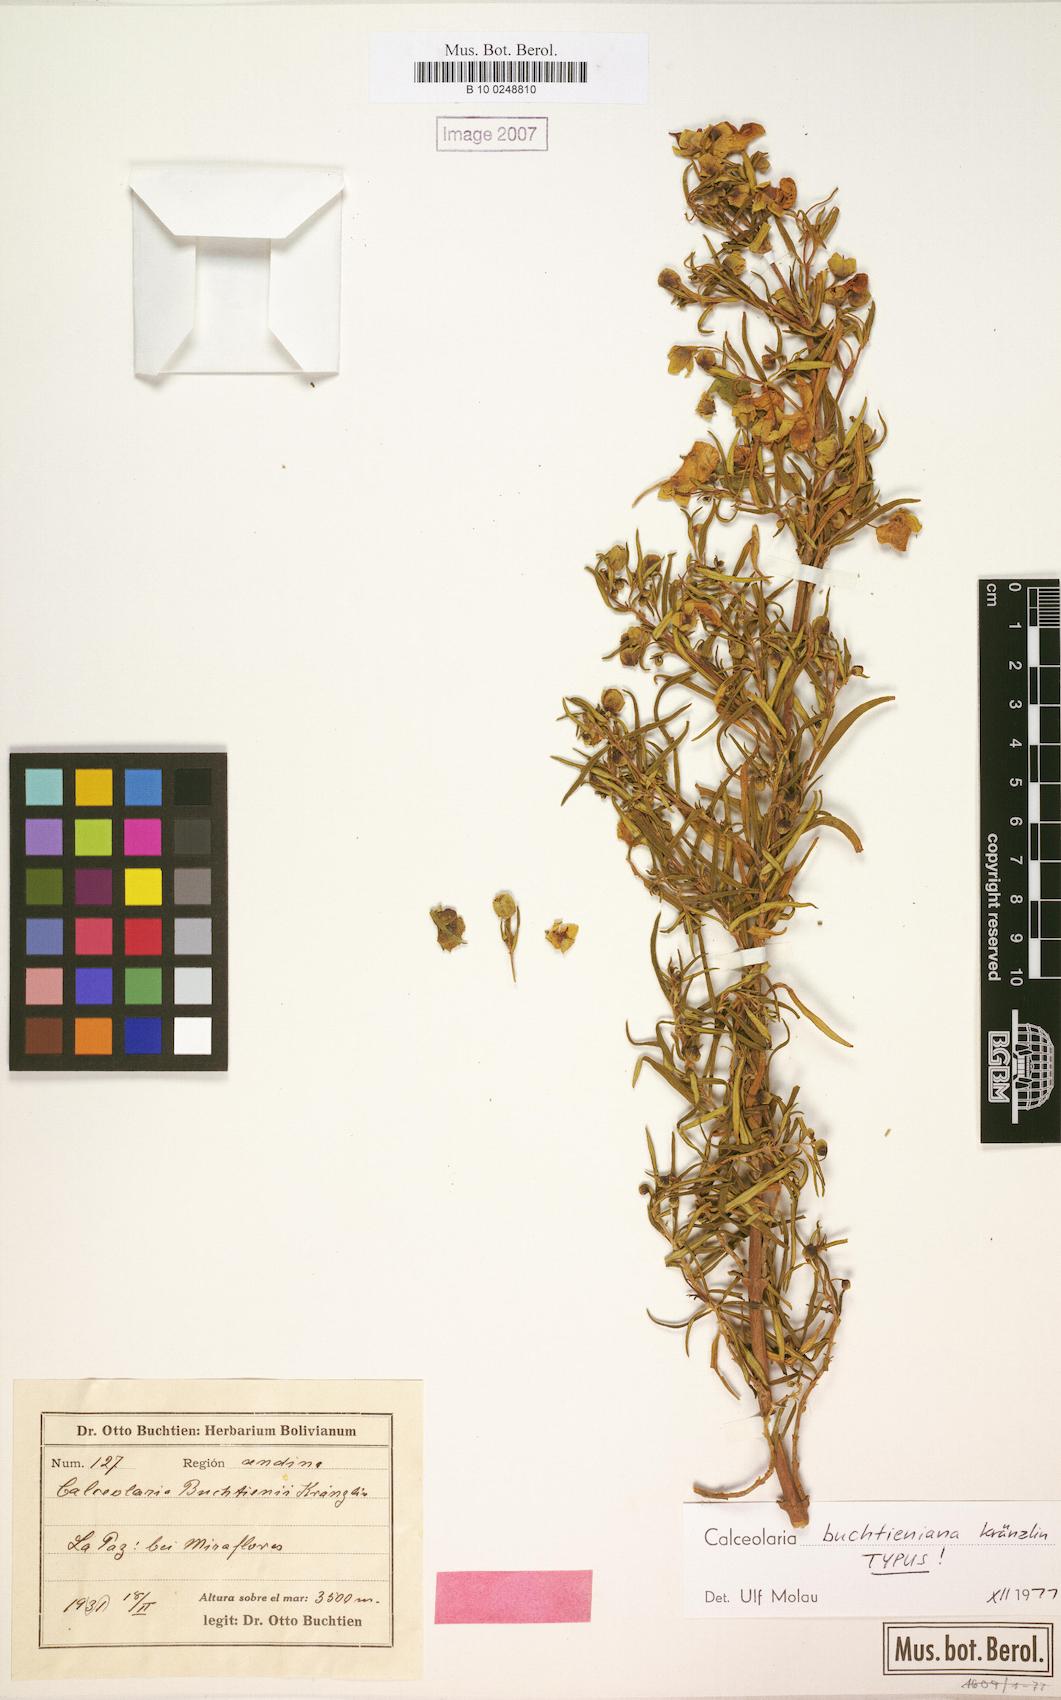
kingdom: Plantae
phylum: Tracheophyta
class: Magnoliopsida
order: Lamiales
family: Calceolariaceae
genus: Calceolaria
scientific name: Calceolaria buchtieniana
